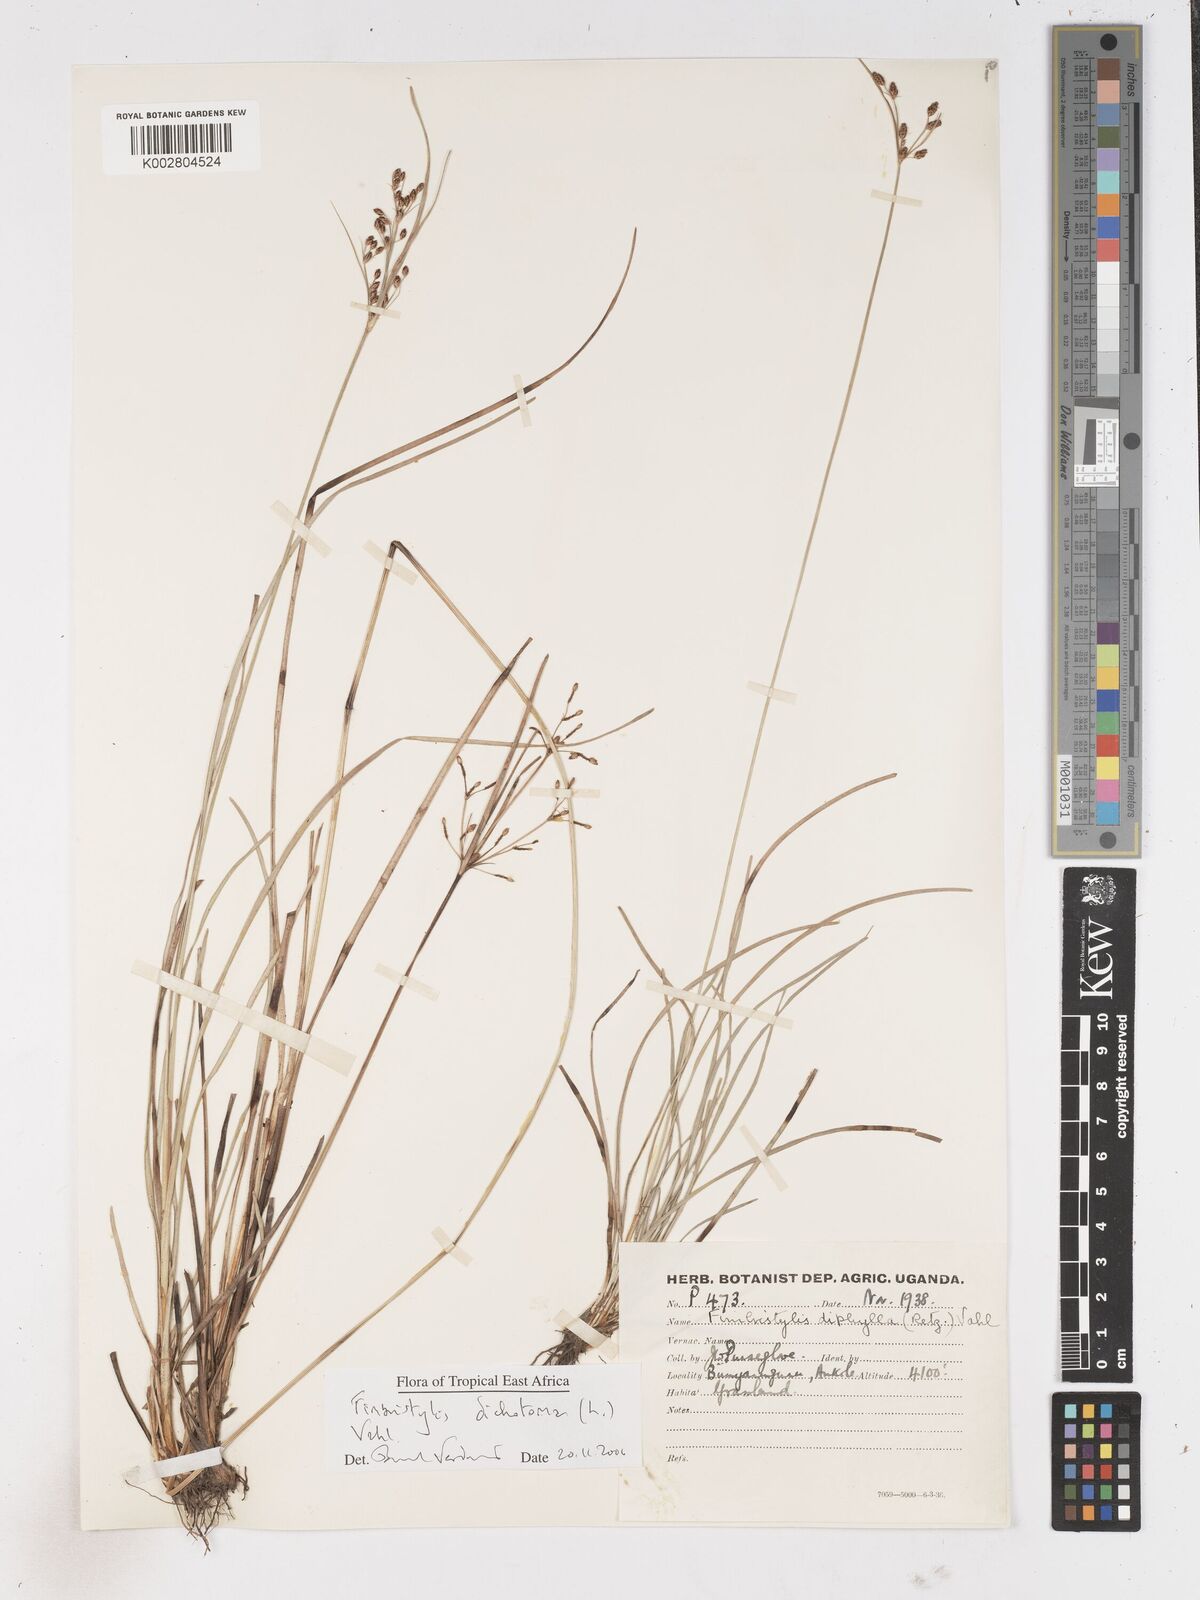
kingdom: Plantae
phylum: Tracheophyta
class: Liliopsida
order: Poales
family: Cyperaceae
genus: Fimbristylis
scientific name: Fimbristylis dichotoma
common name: Forked fimbry
